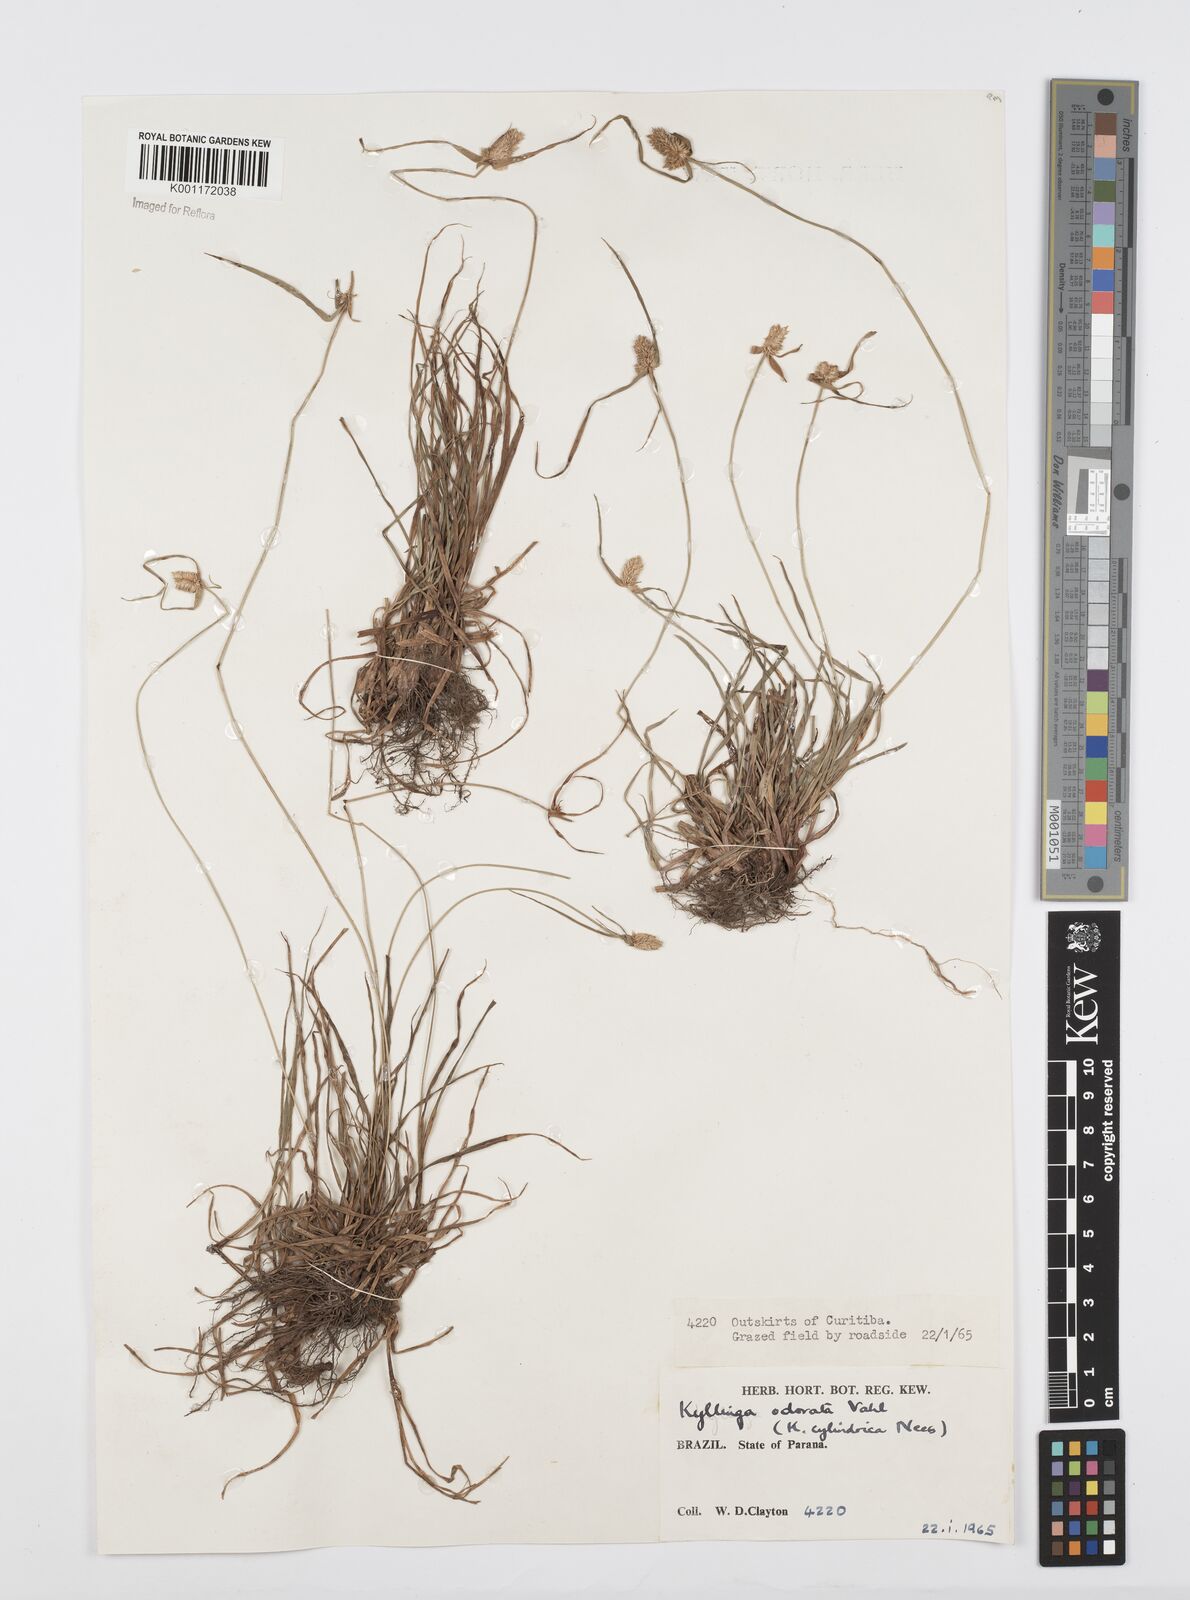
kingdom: Plantae
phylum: Tracheophyta
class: Liliopsida
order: Poales
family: Cyperaceae
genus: Cyperus
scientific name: Cyperus
